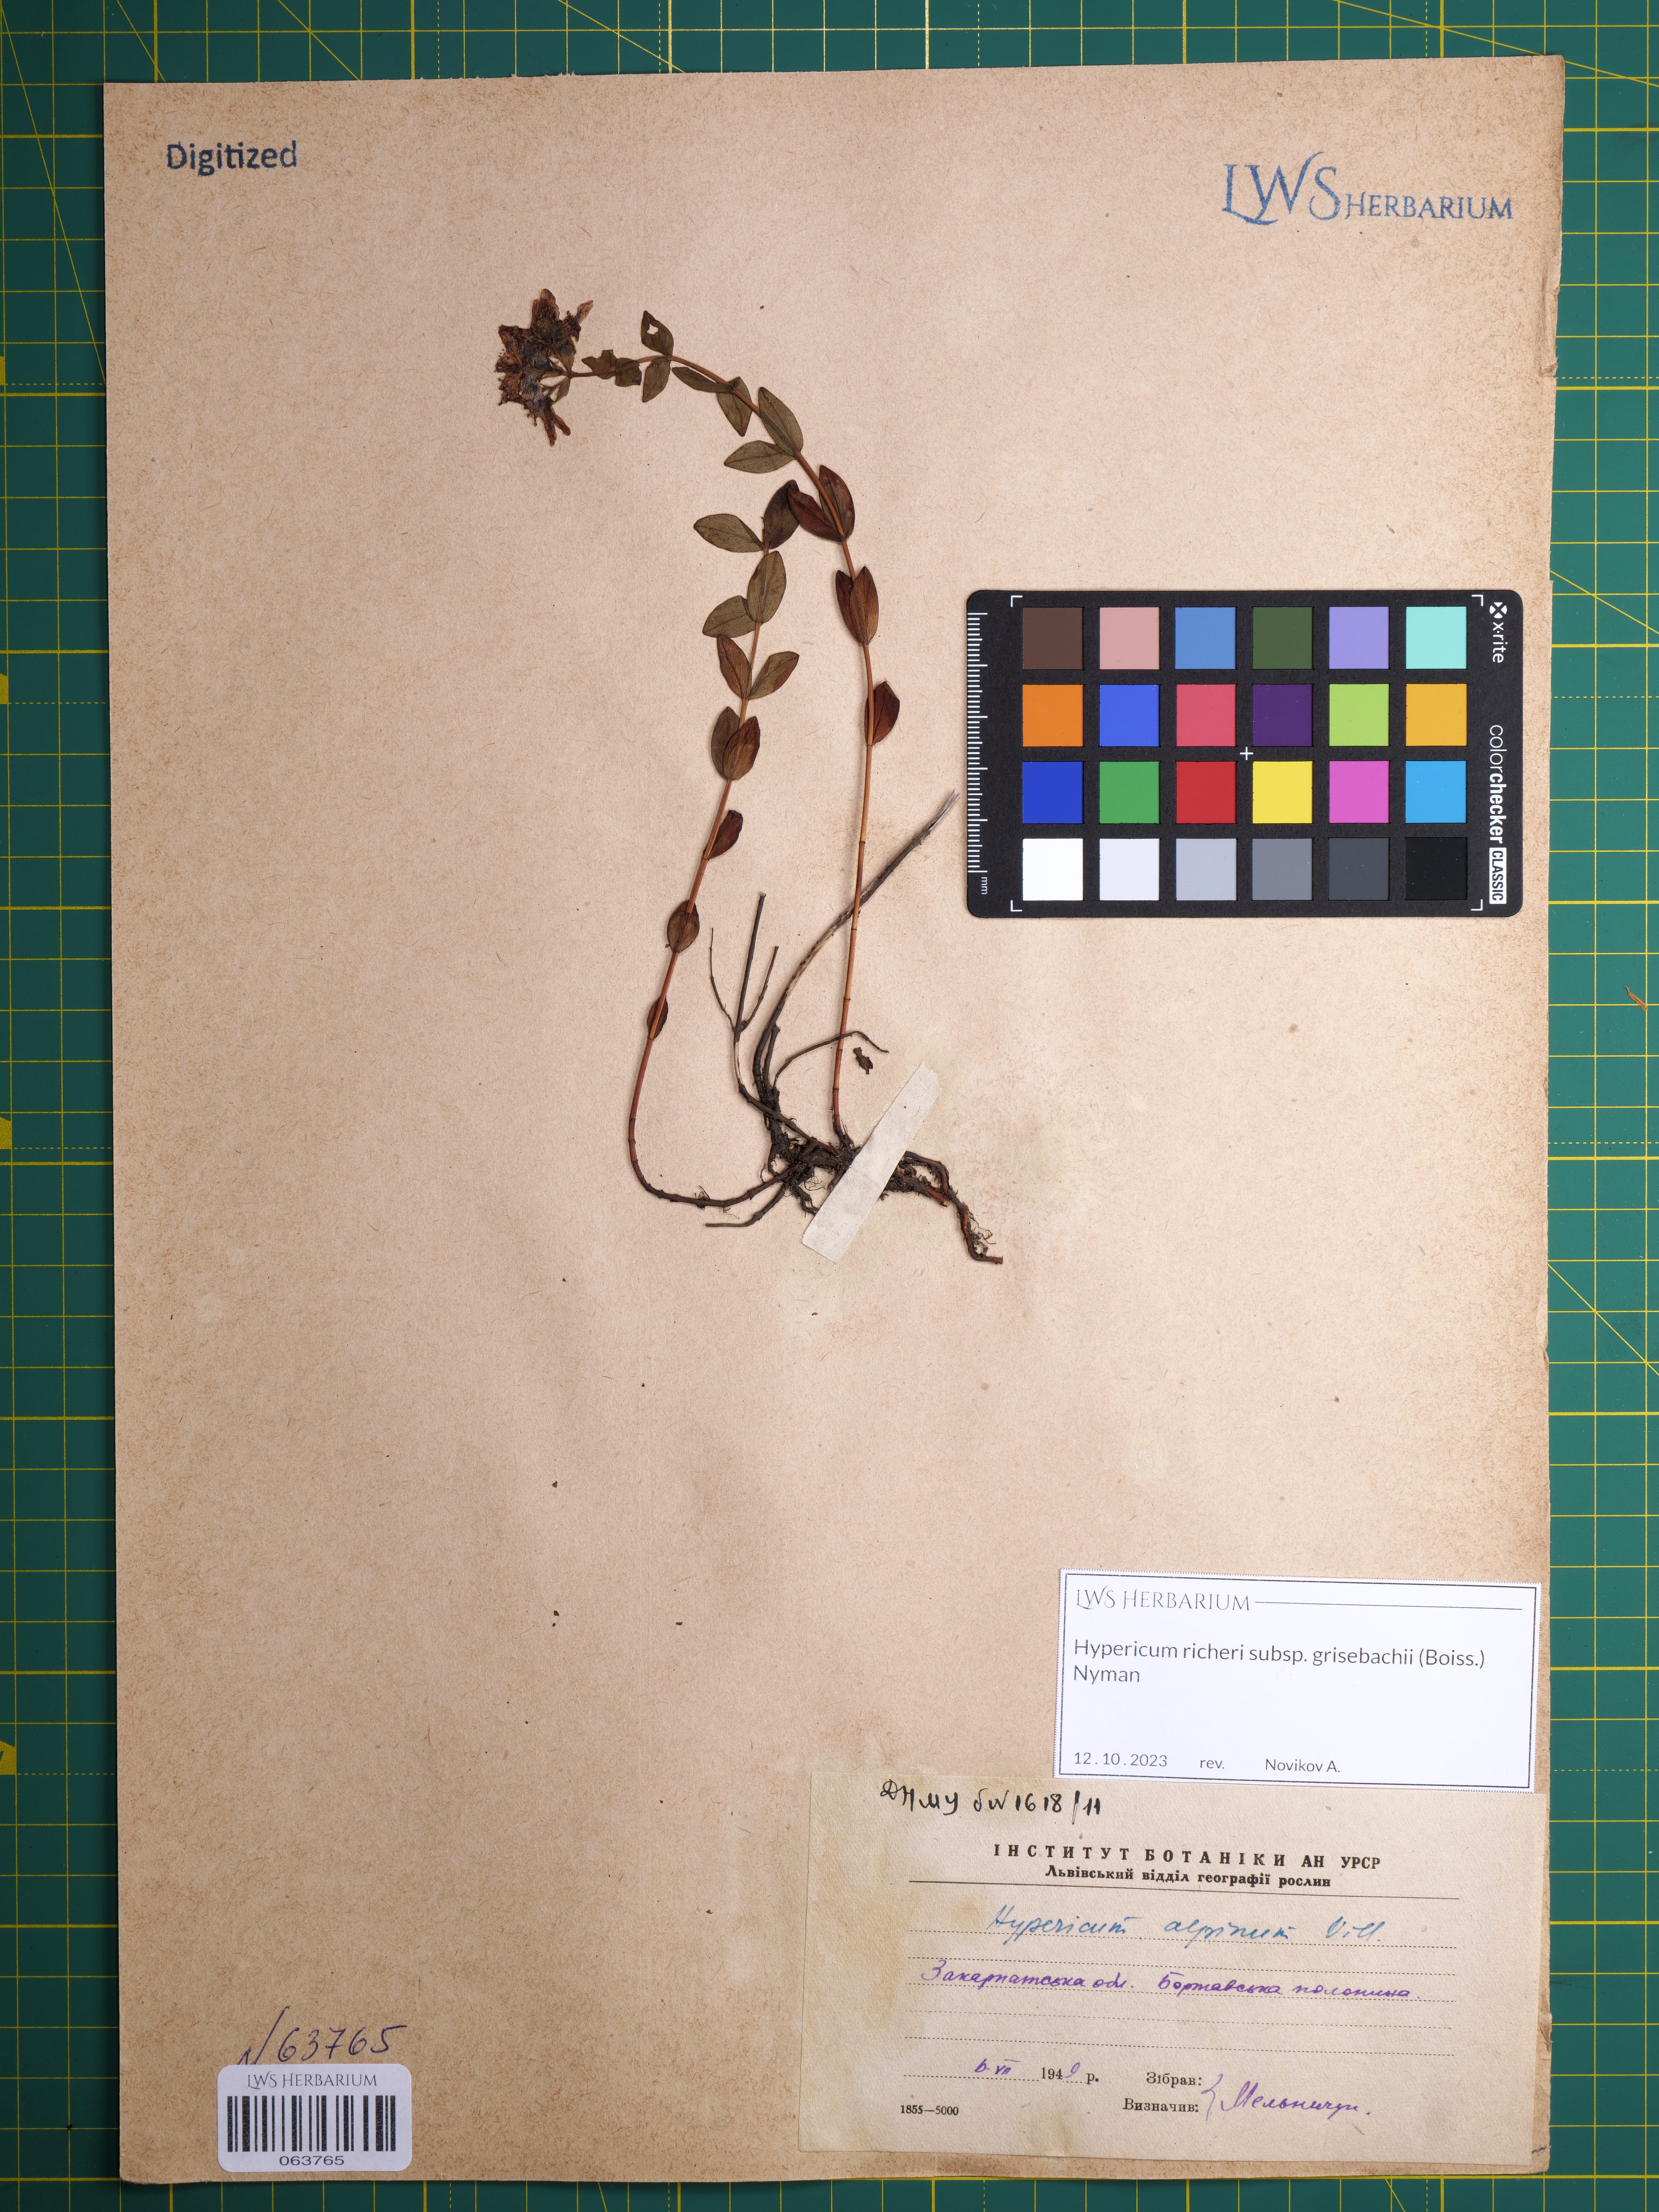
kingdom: Plantae
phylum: Tracheophyta
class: Magnoliopsida
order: Malpighiales
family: Hypericaceae
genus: Hypericum
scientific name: Hypericum richeri
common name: Alpine st john's-wort
